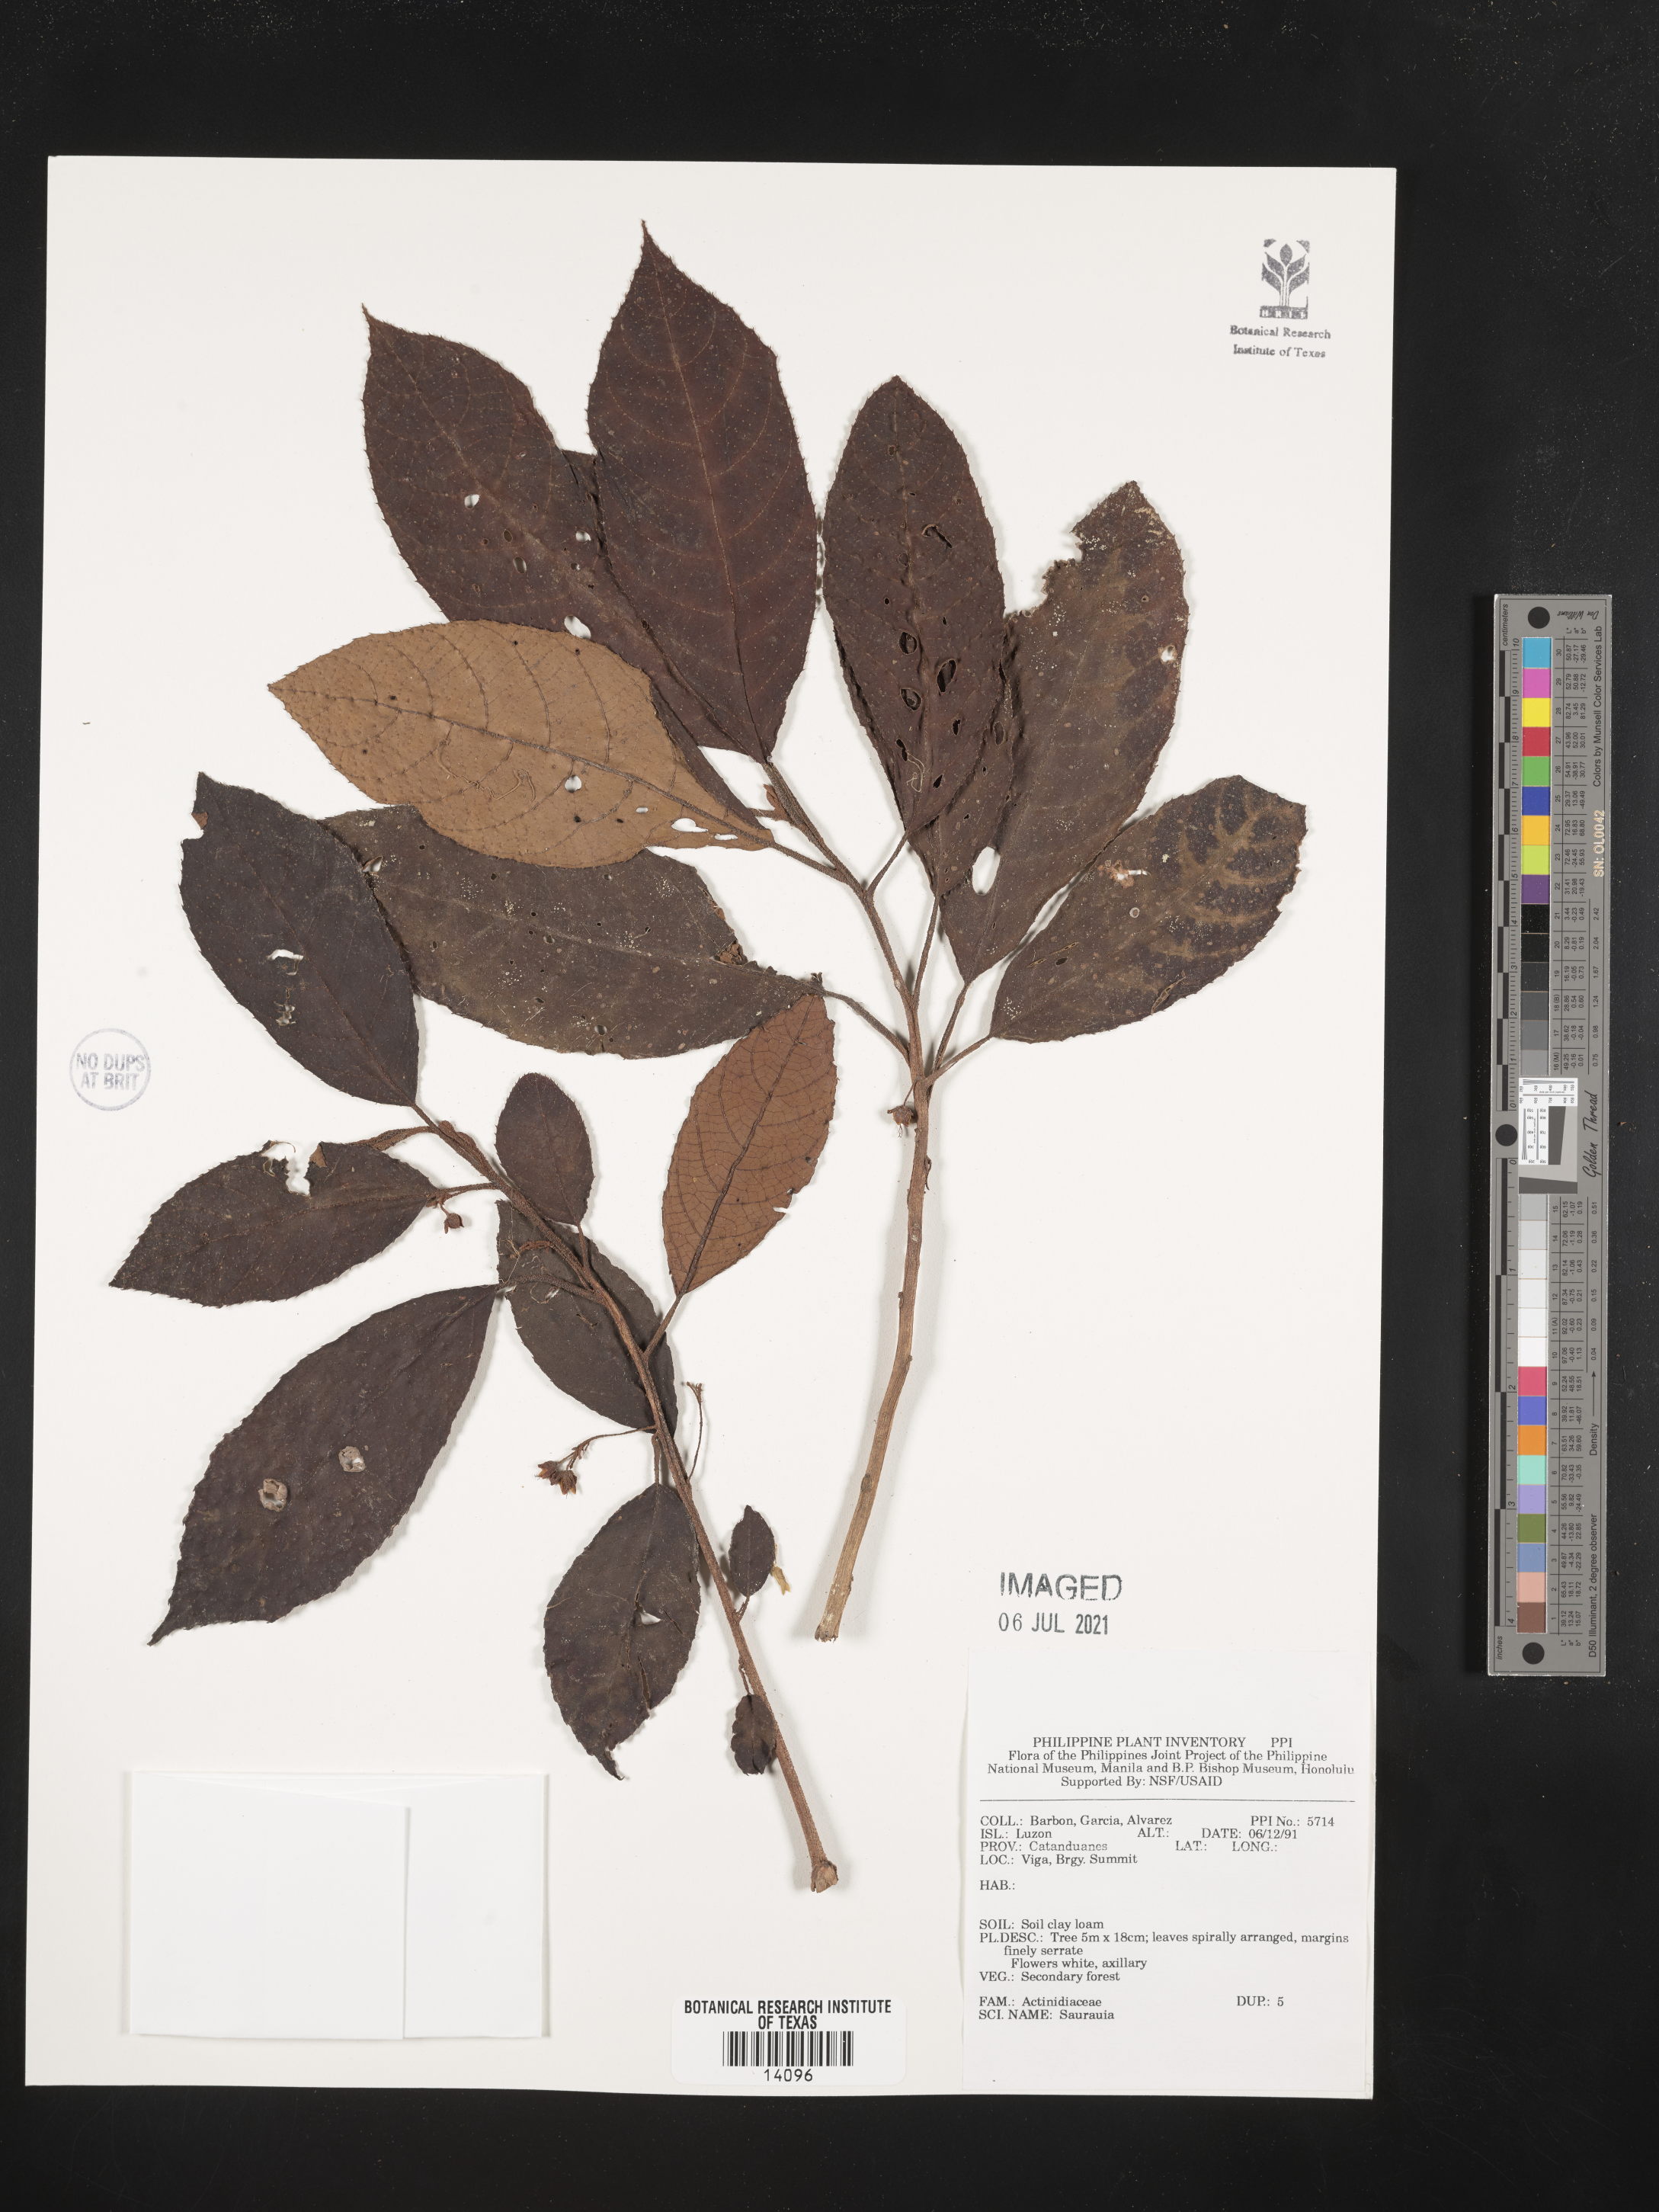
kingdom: Plantae
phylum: Tracheophyta
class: Magnoliopsida
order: Ericales
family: Actinidiaceae
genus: Saurauia
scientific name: Saurauia
